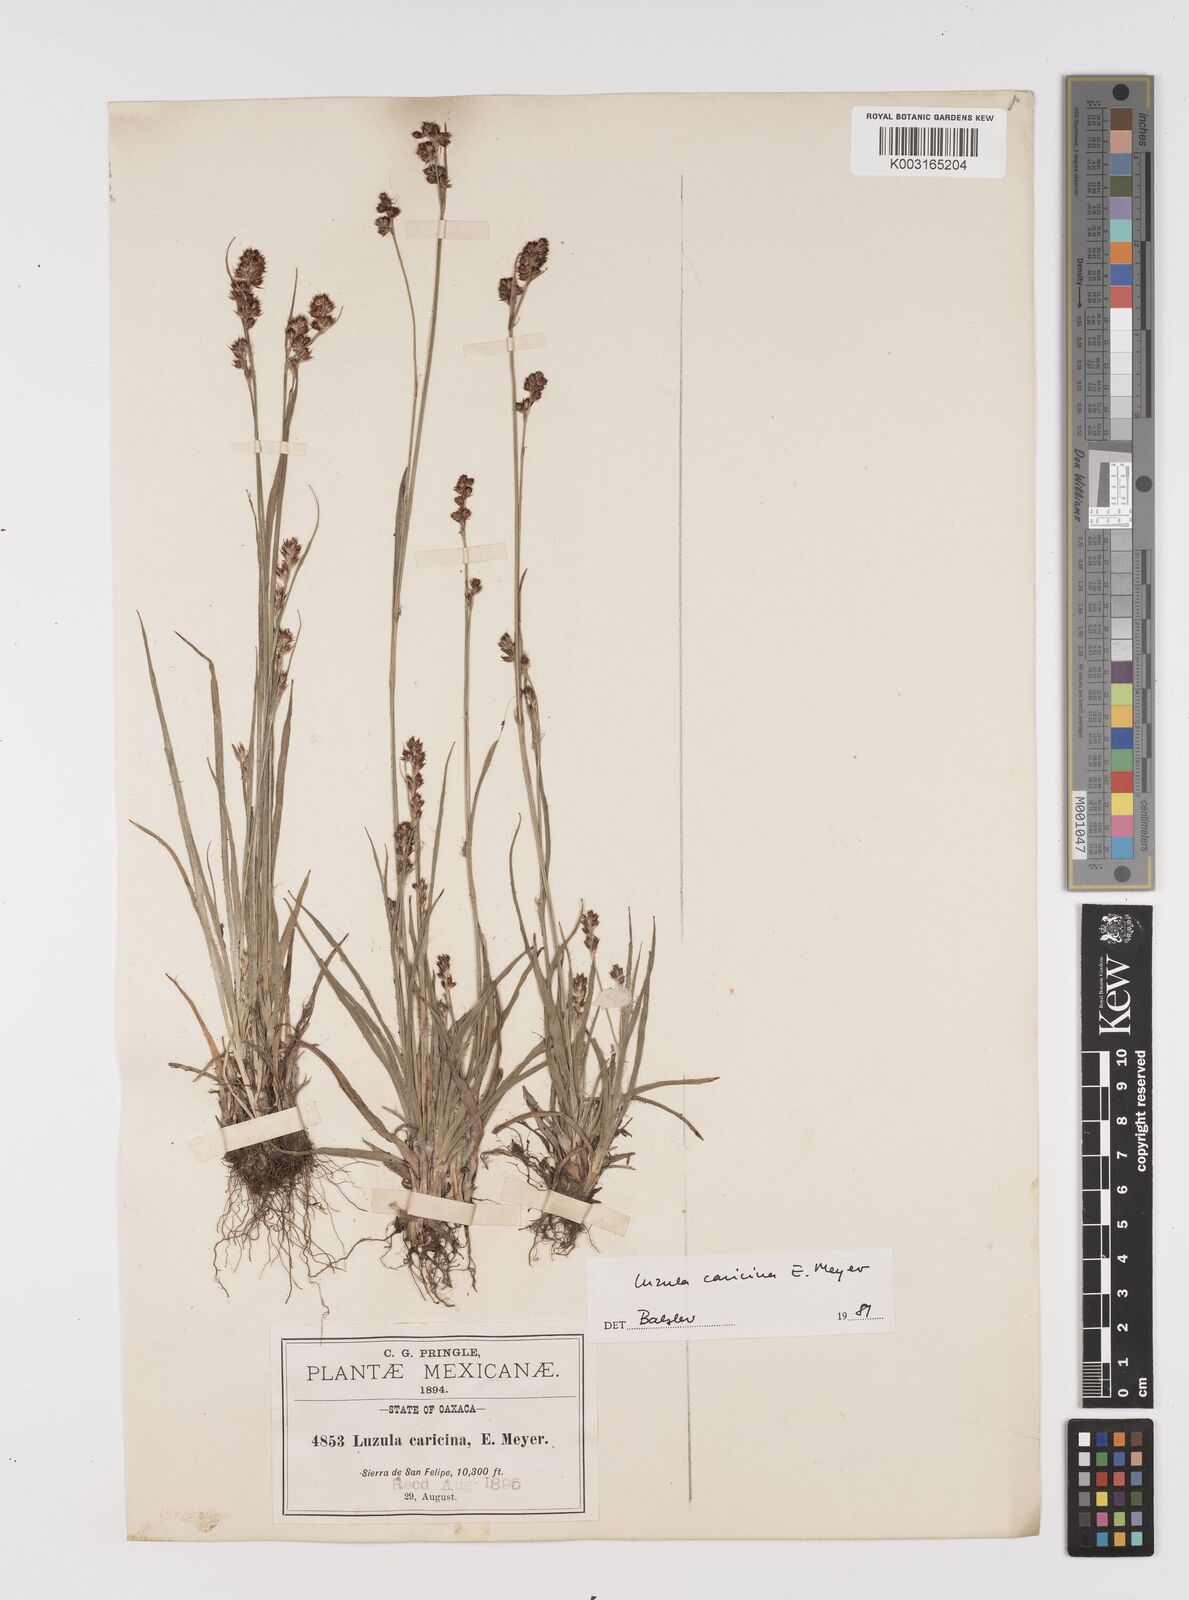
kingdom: Plantae
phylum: Tracheophyta
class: Liliopsida
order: Poales
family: Juncaceae
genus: Luzula
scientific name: Luzula caricina
